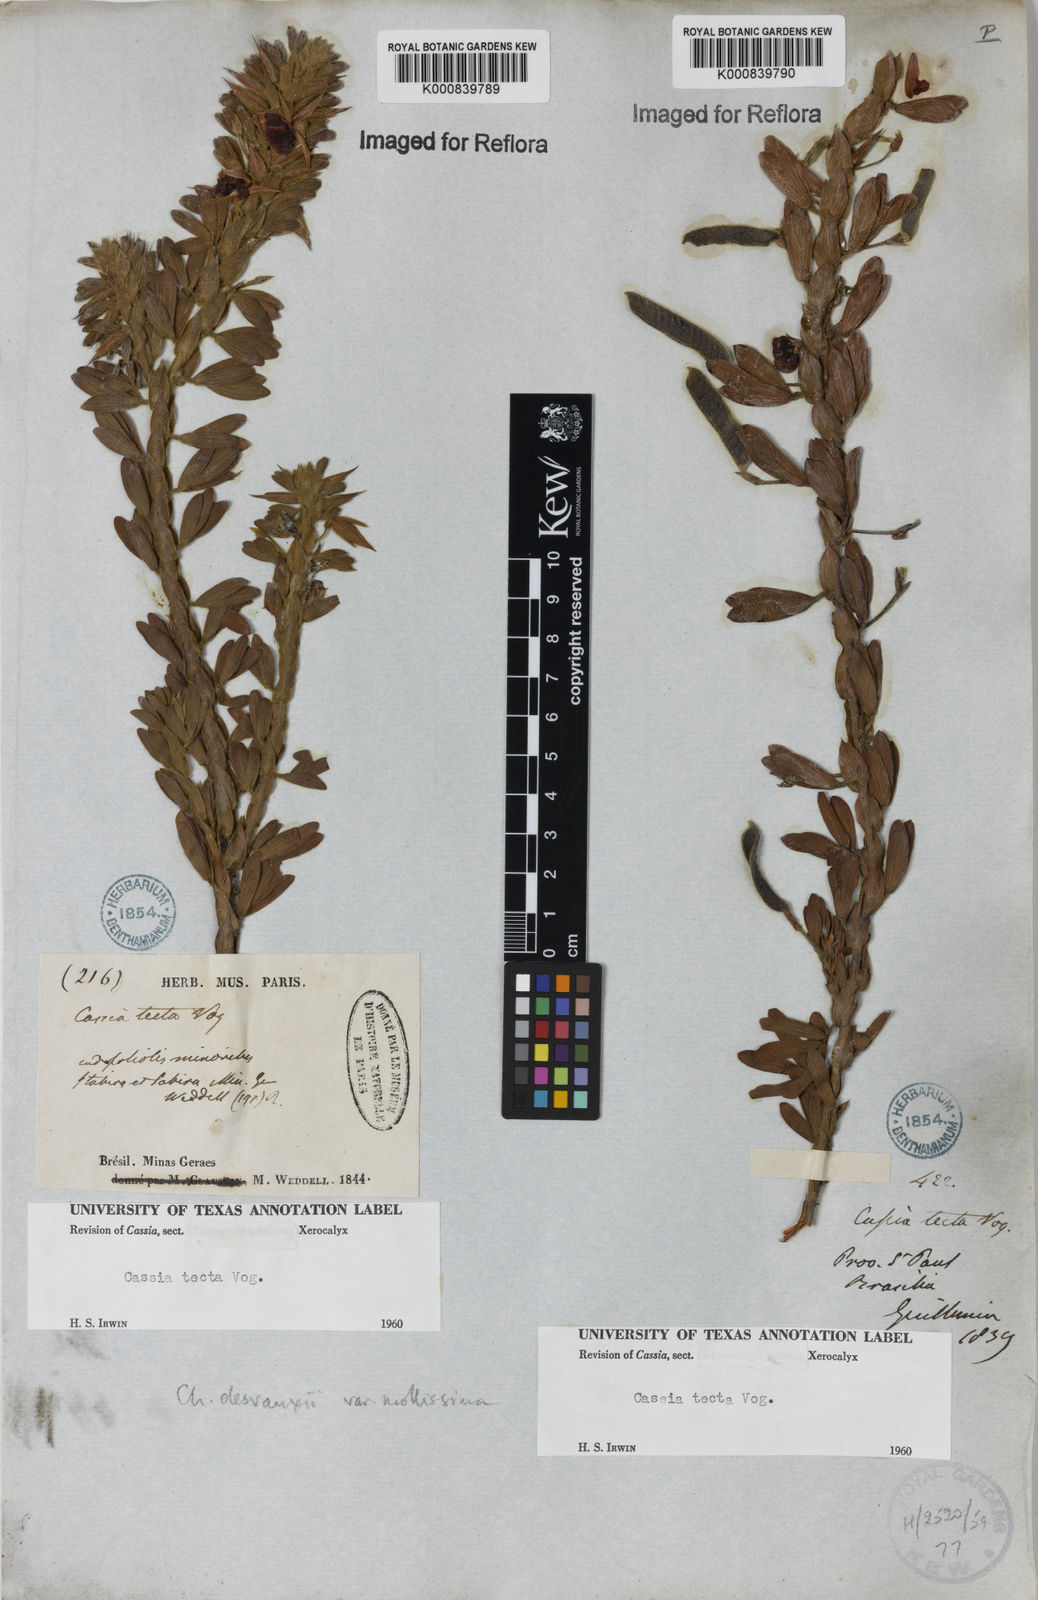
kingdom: Plantae
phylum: Tracheophyta
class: Magnoliopsida
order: Fabales
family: Fabaceae
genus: Chamaecrista
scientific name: Chamaecrista desvauxii
